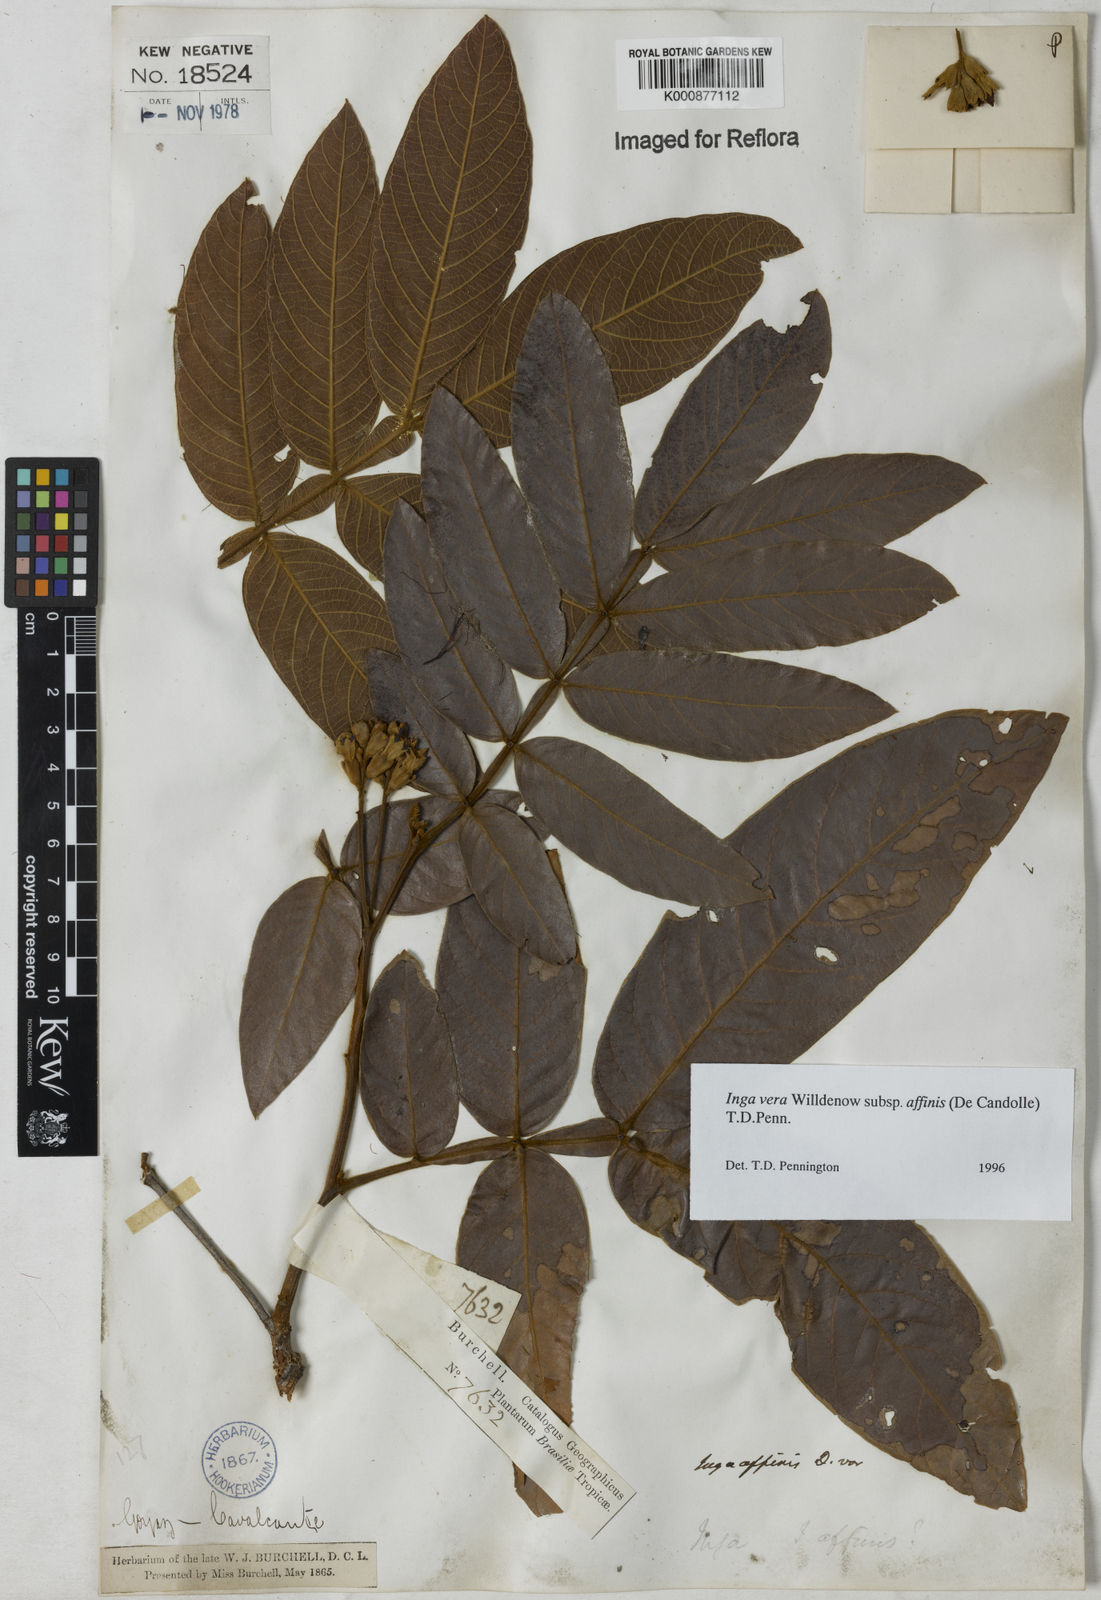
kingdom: Plantae
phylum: Tracheophyta
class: Magnoliopsida
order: Fabales
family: Fabaceae
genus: Inga
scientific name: Inga affinis
